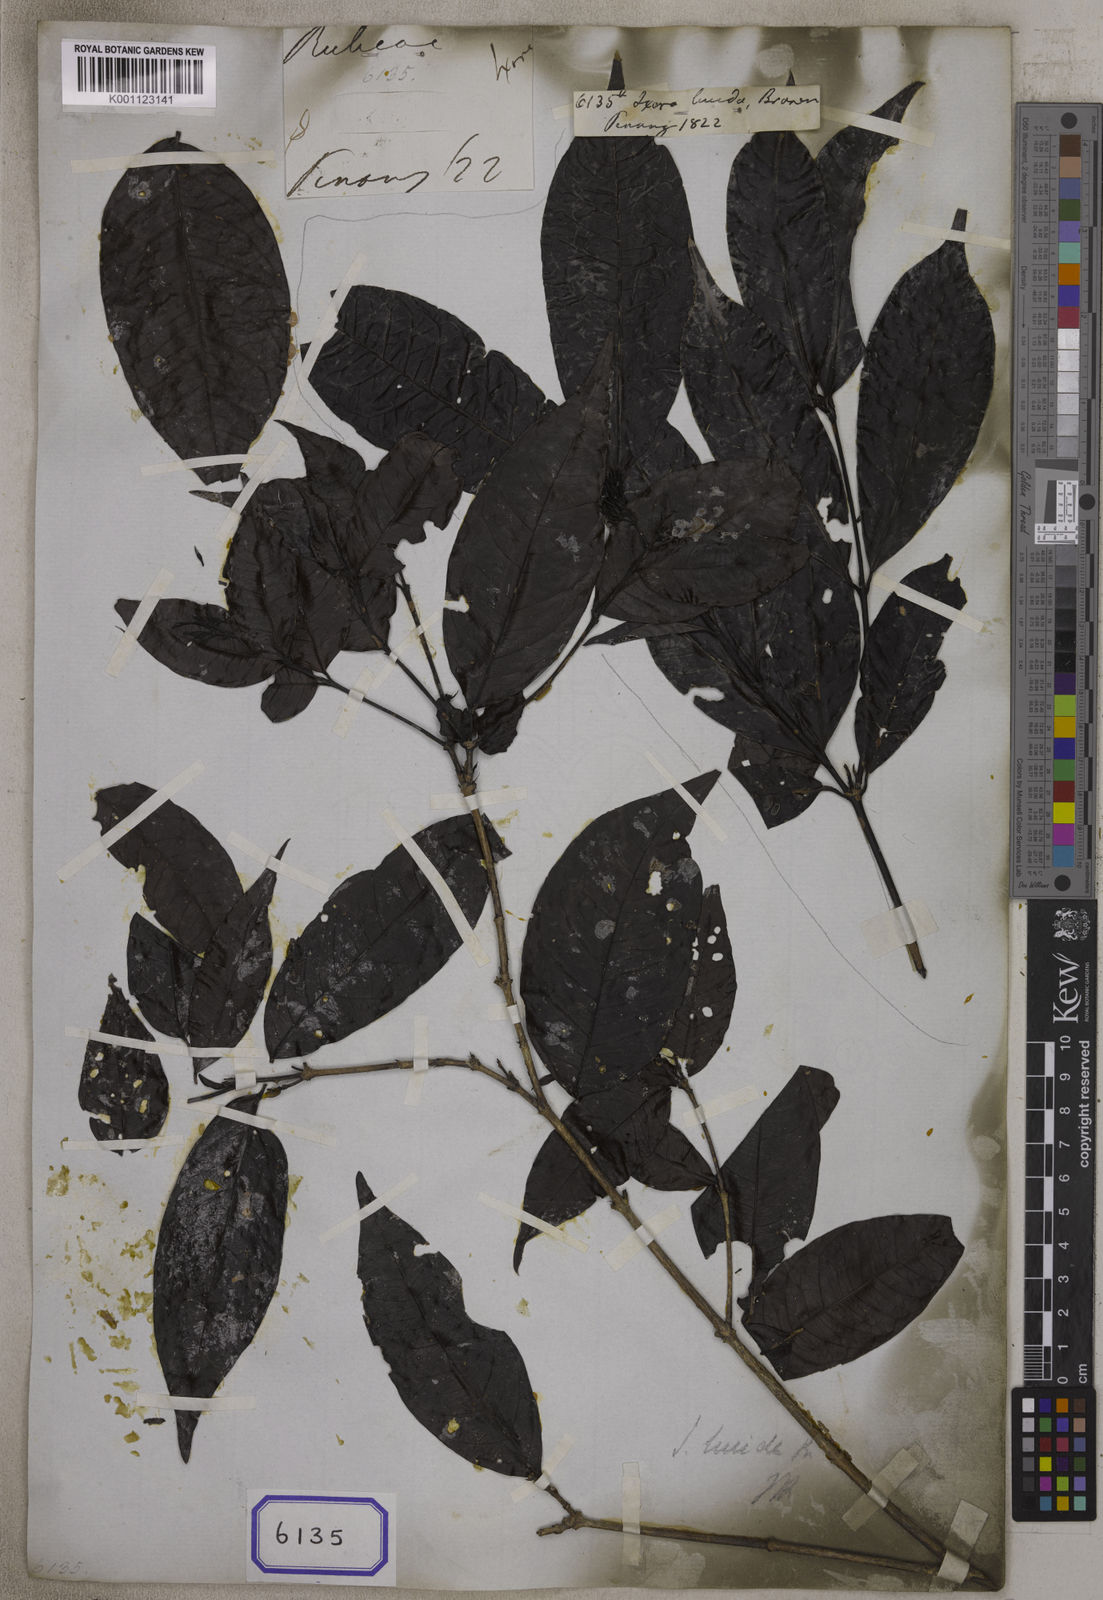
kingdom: Plantae
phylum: Tracheophyta
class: Magnoliopsida
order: Gentianales
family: Rubiaceae
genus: Ixora
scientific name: Ixora
